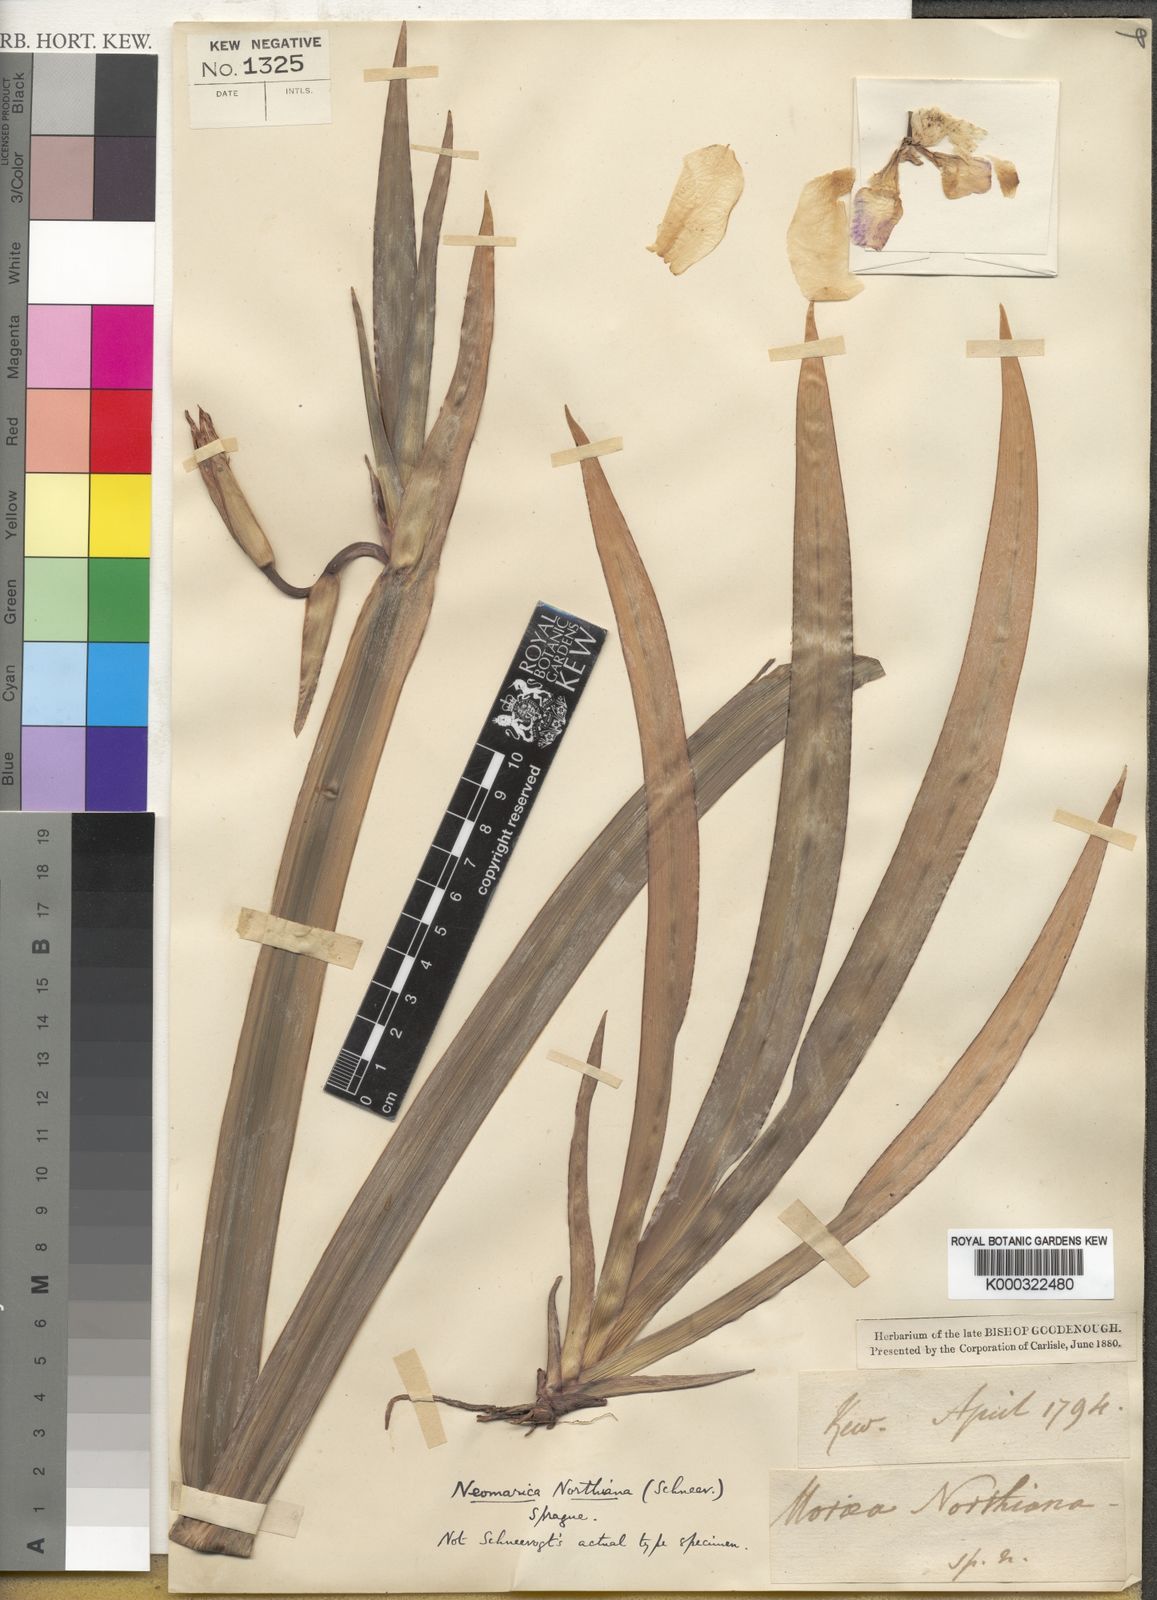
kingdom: Plantae
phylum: Tracheophyta
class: Liliopsida
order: Asparagales
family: Iridaceae
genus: Trimezia
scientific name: Trimezia northiana
